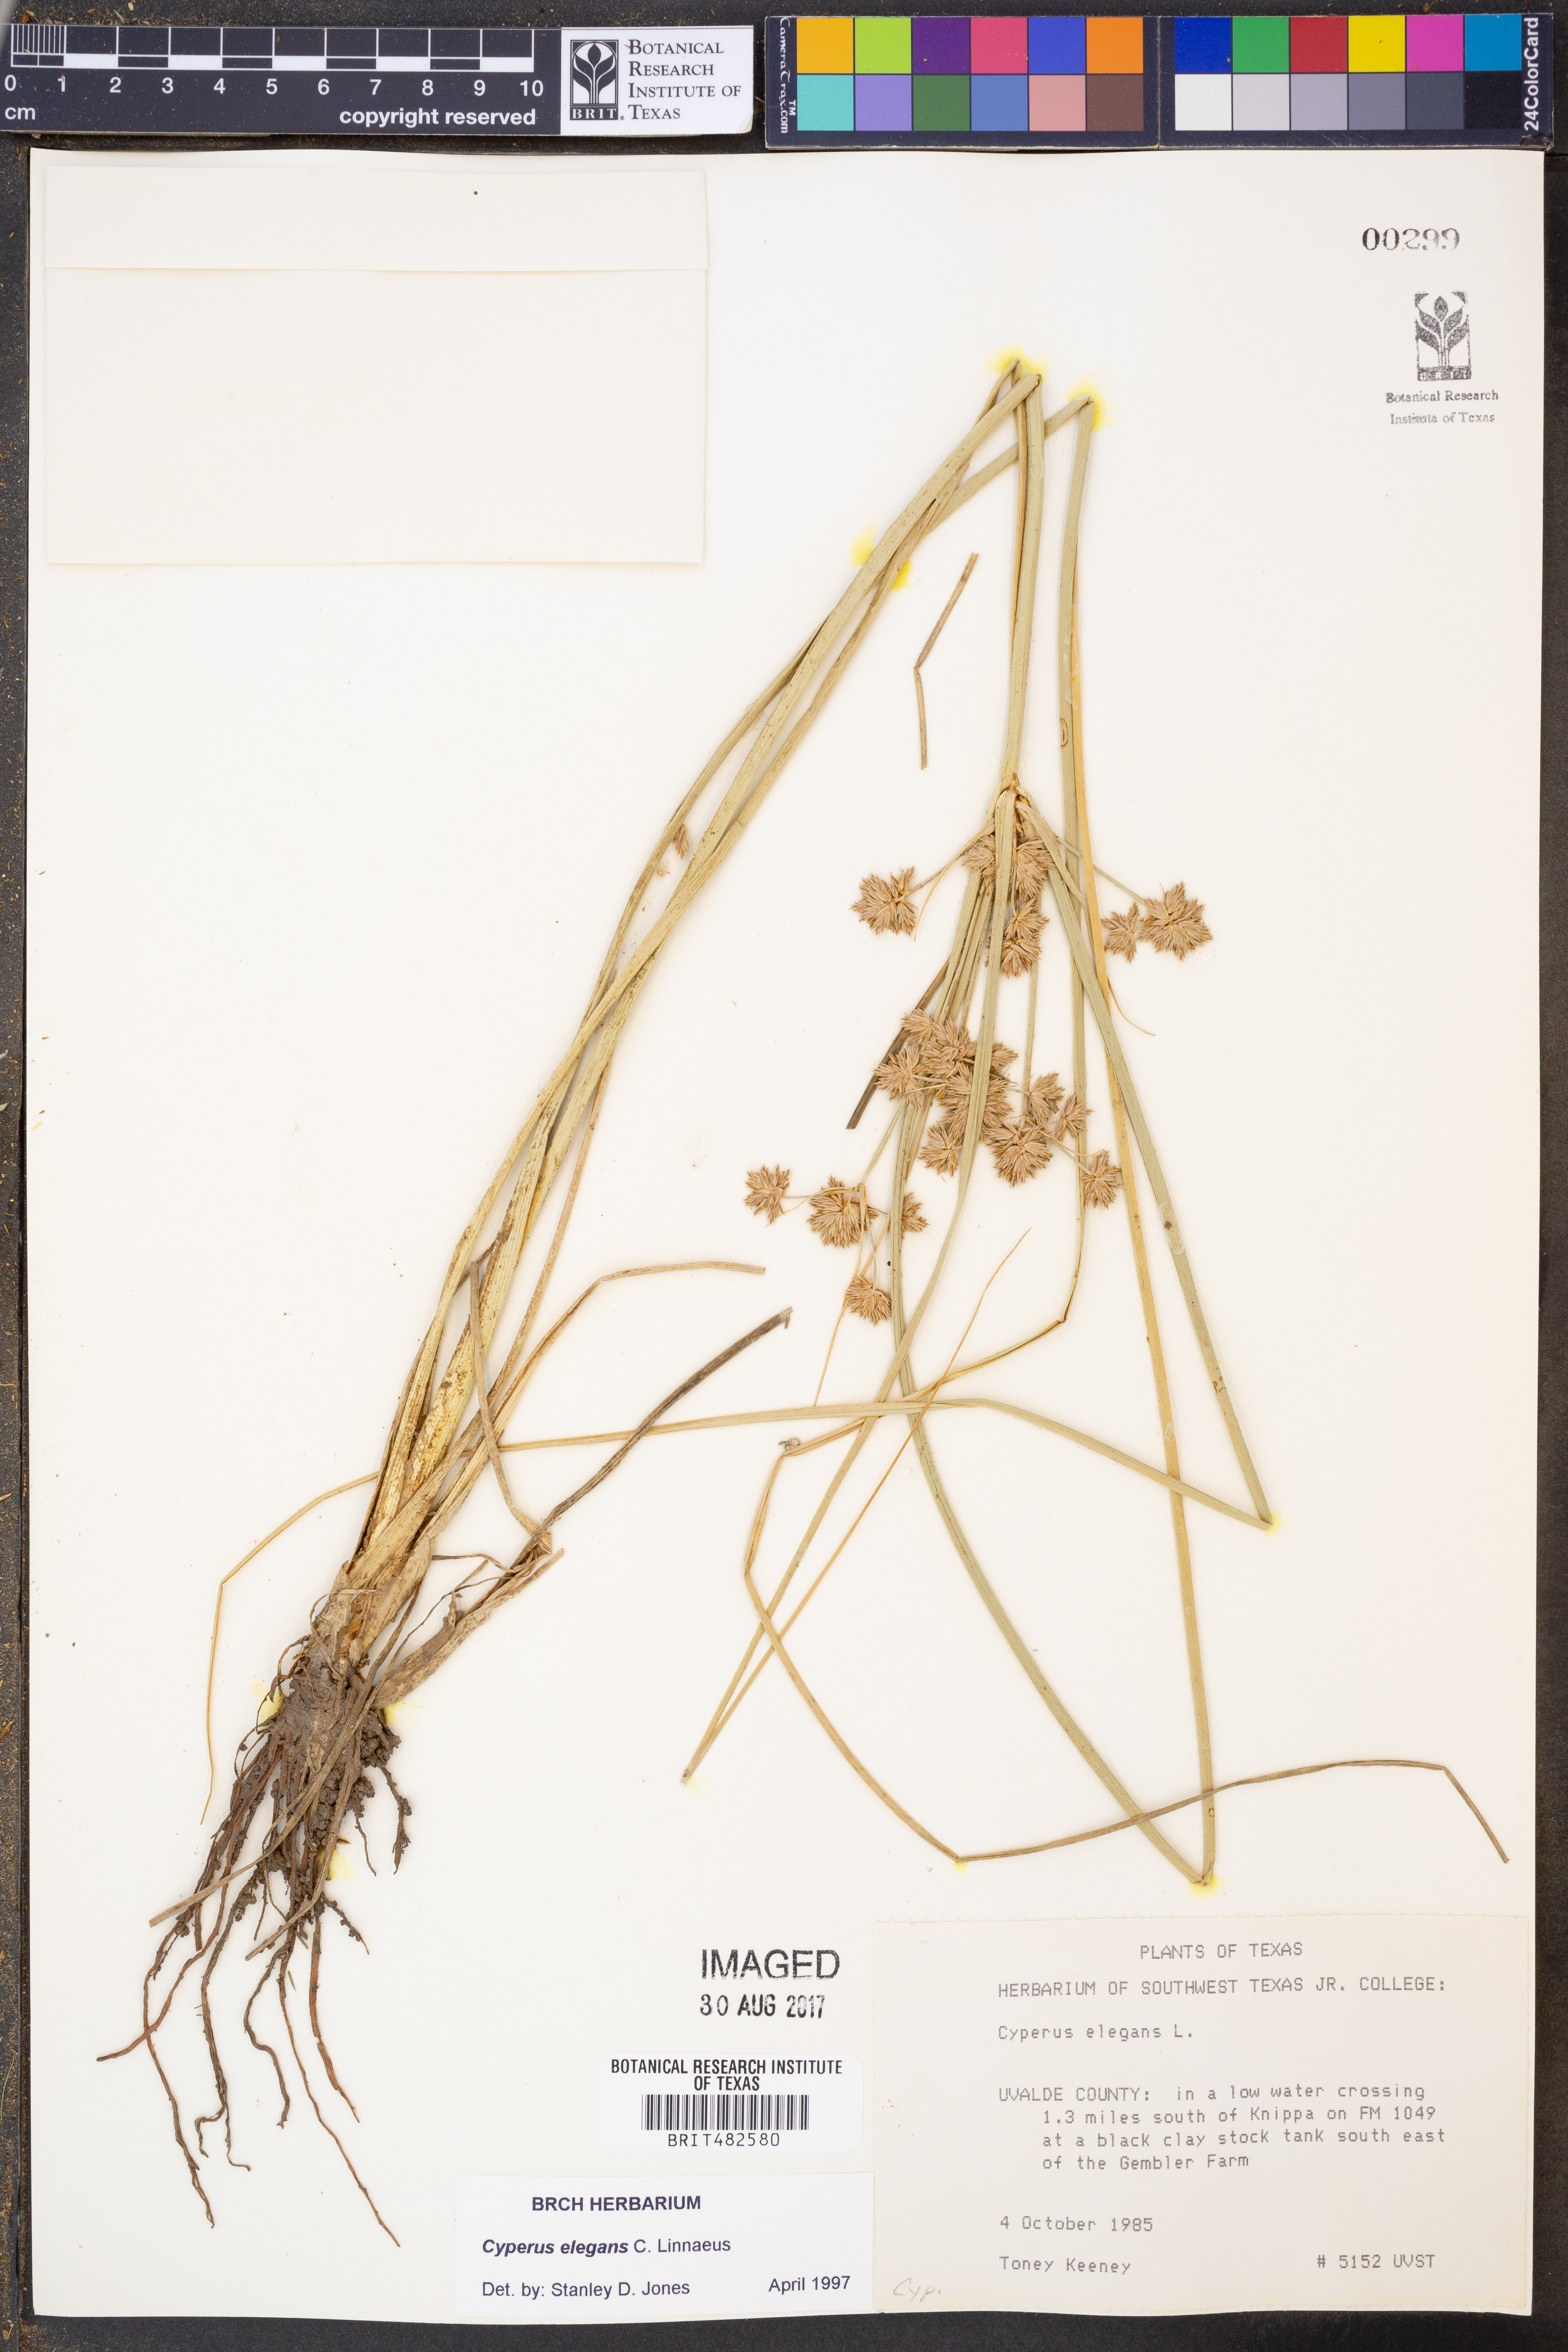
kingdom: Plantae
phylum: Tracheophyta
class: Liliopsida
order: Poales
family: Cyperaceae
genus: Cyperus
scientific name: Cyperus elegans
